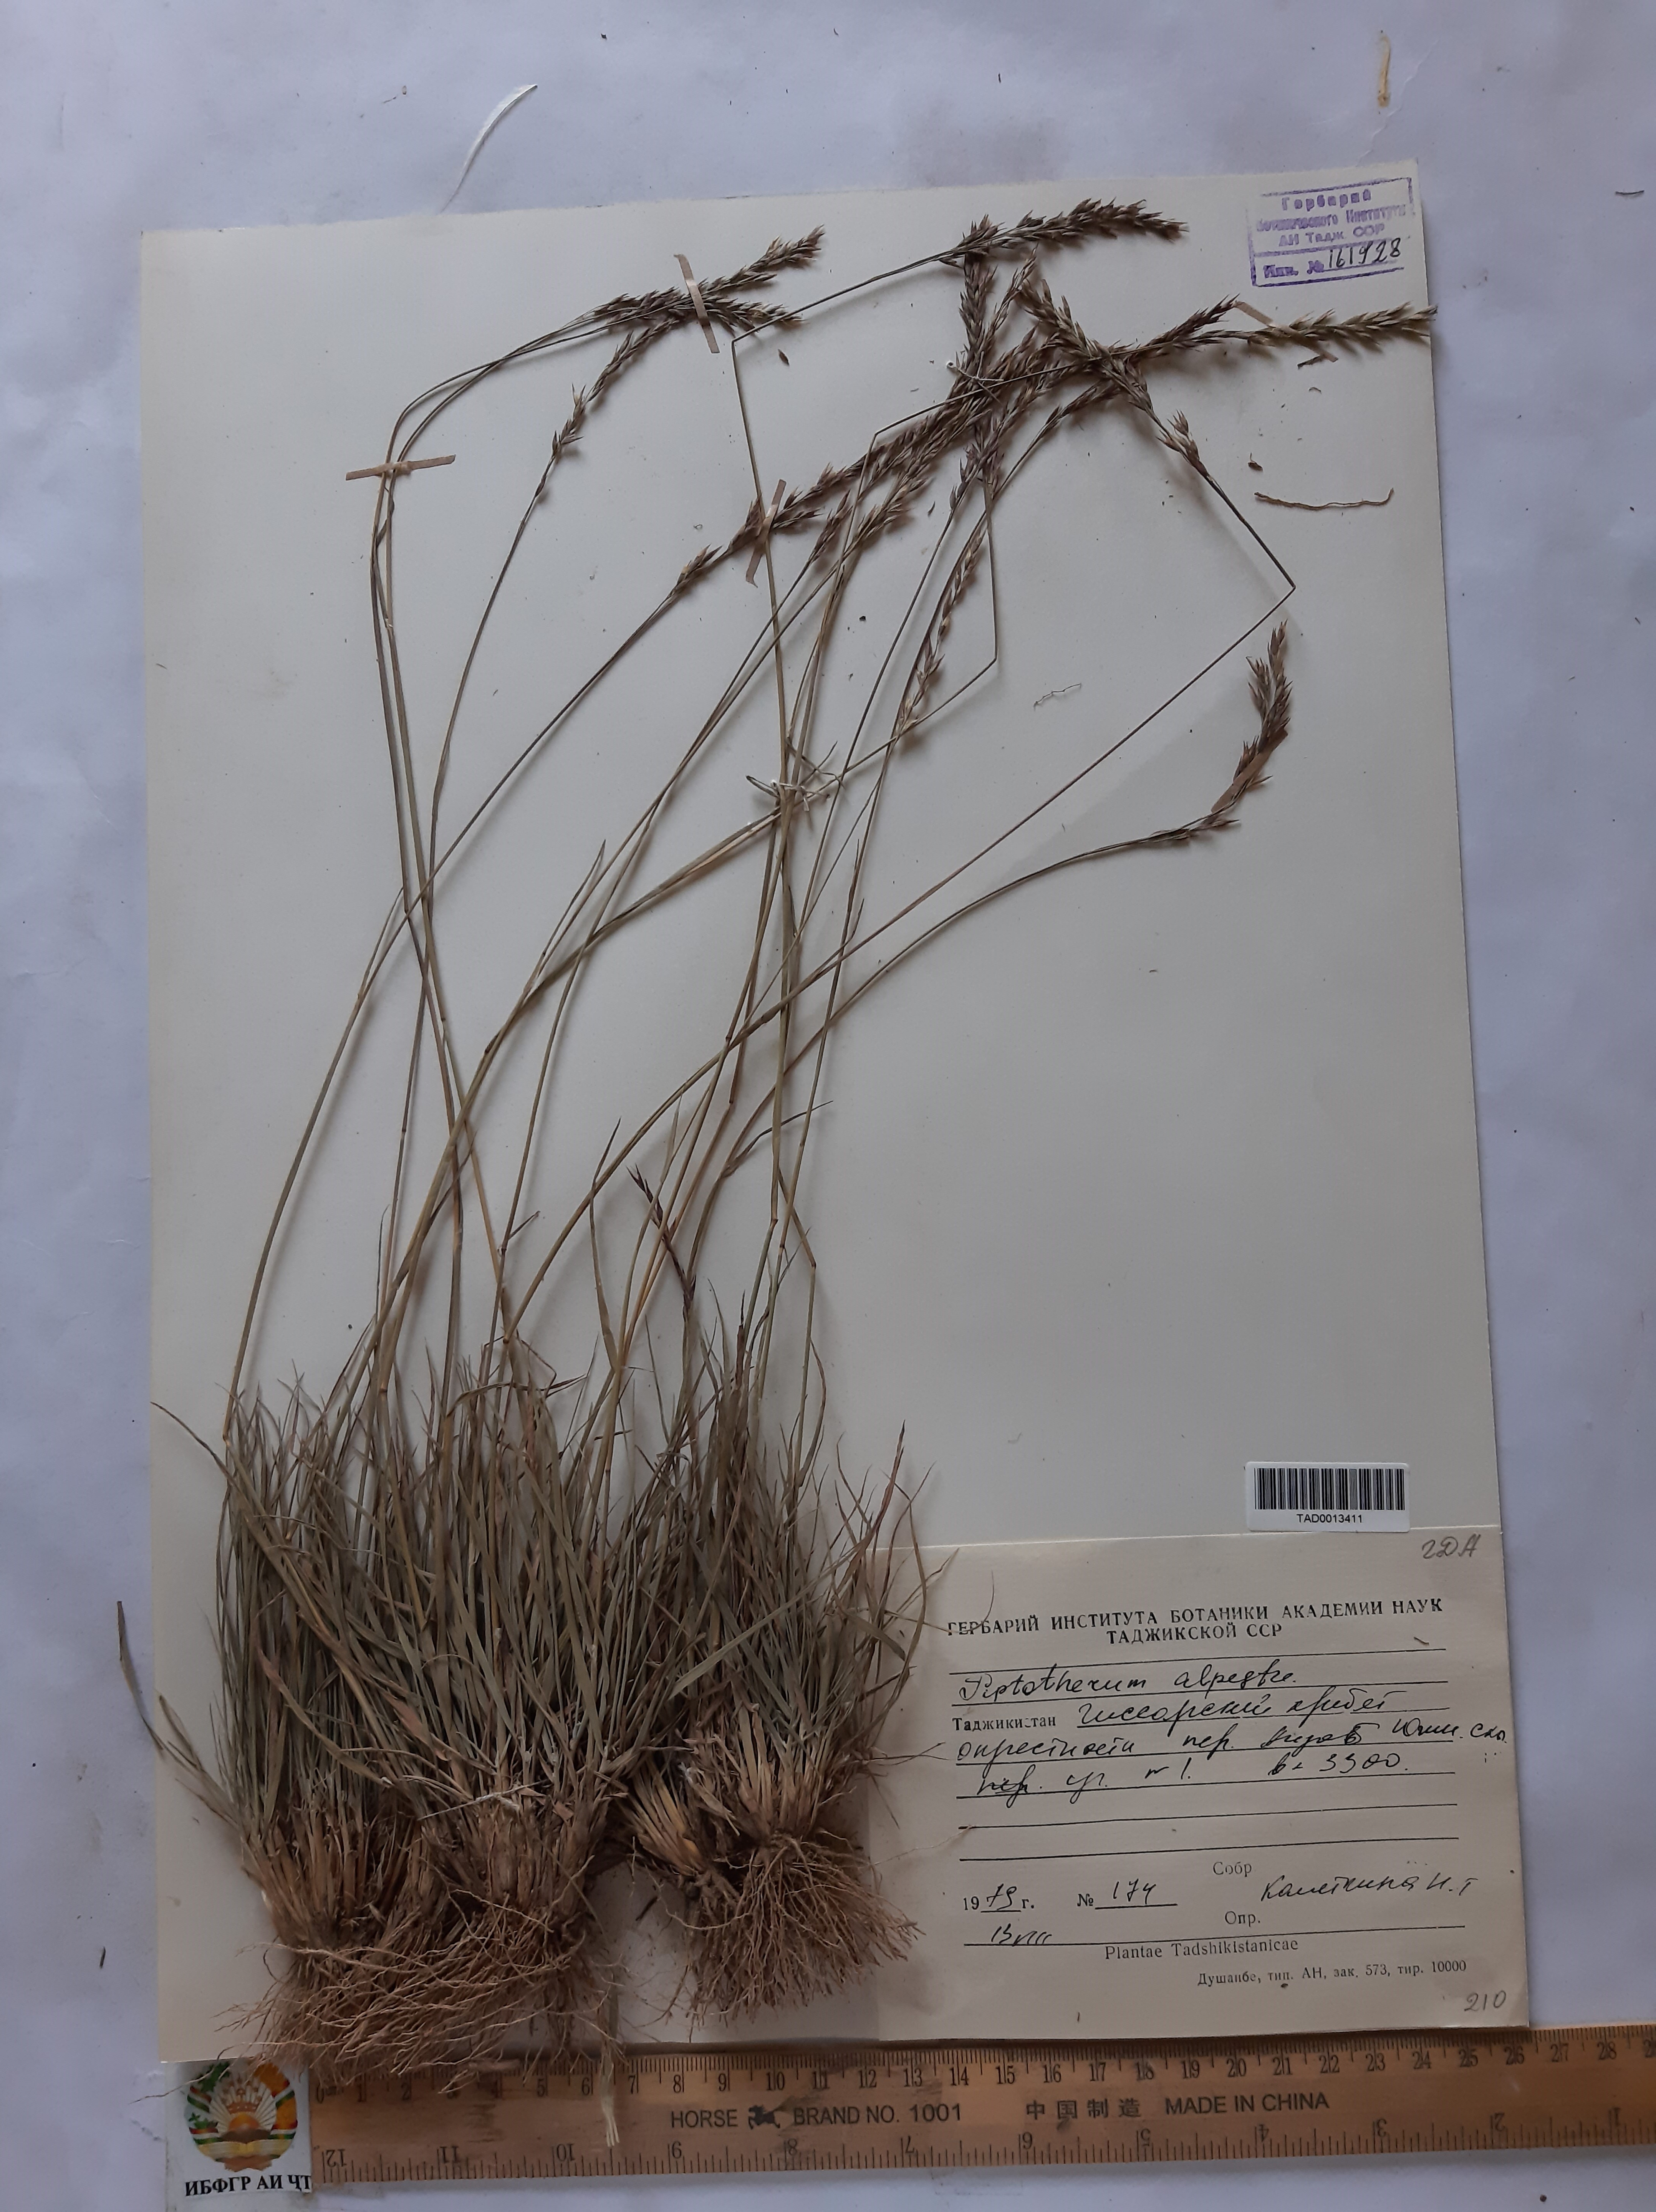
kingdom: Plantae
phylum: Tracheophyta
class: Liliopsida
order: Poales
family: Poaceae
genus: Piptatherum
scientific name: Piptatherum alpestre
